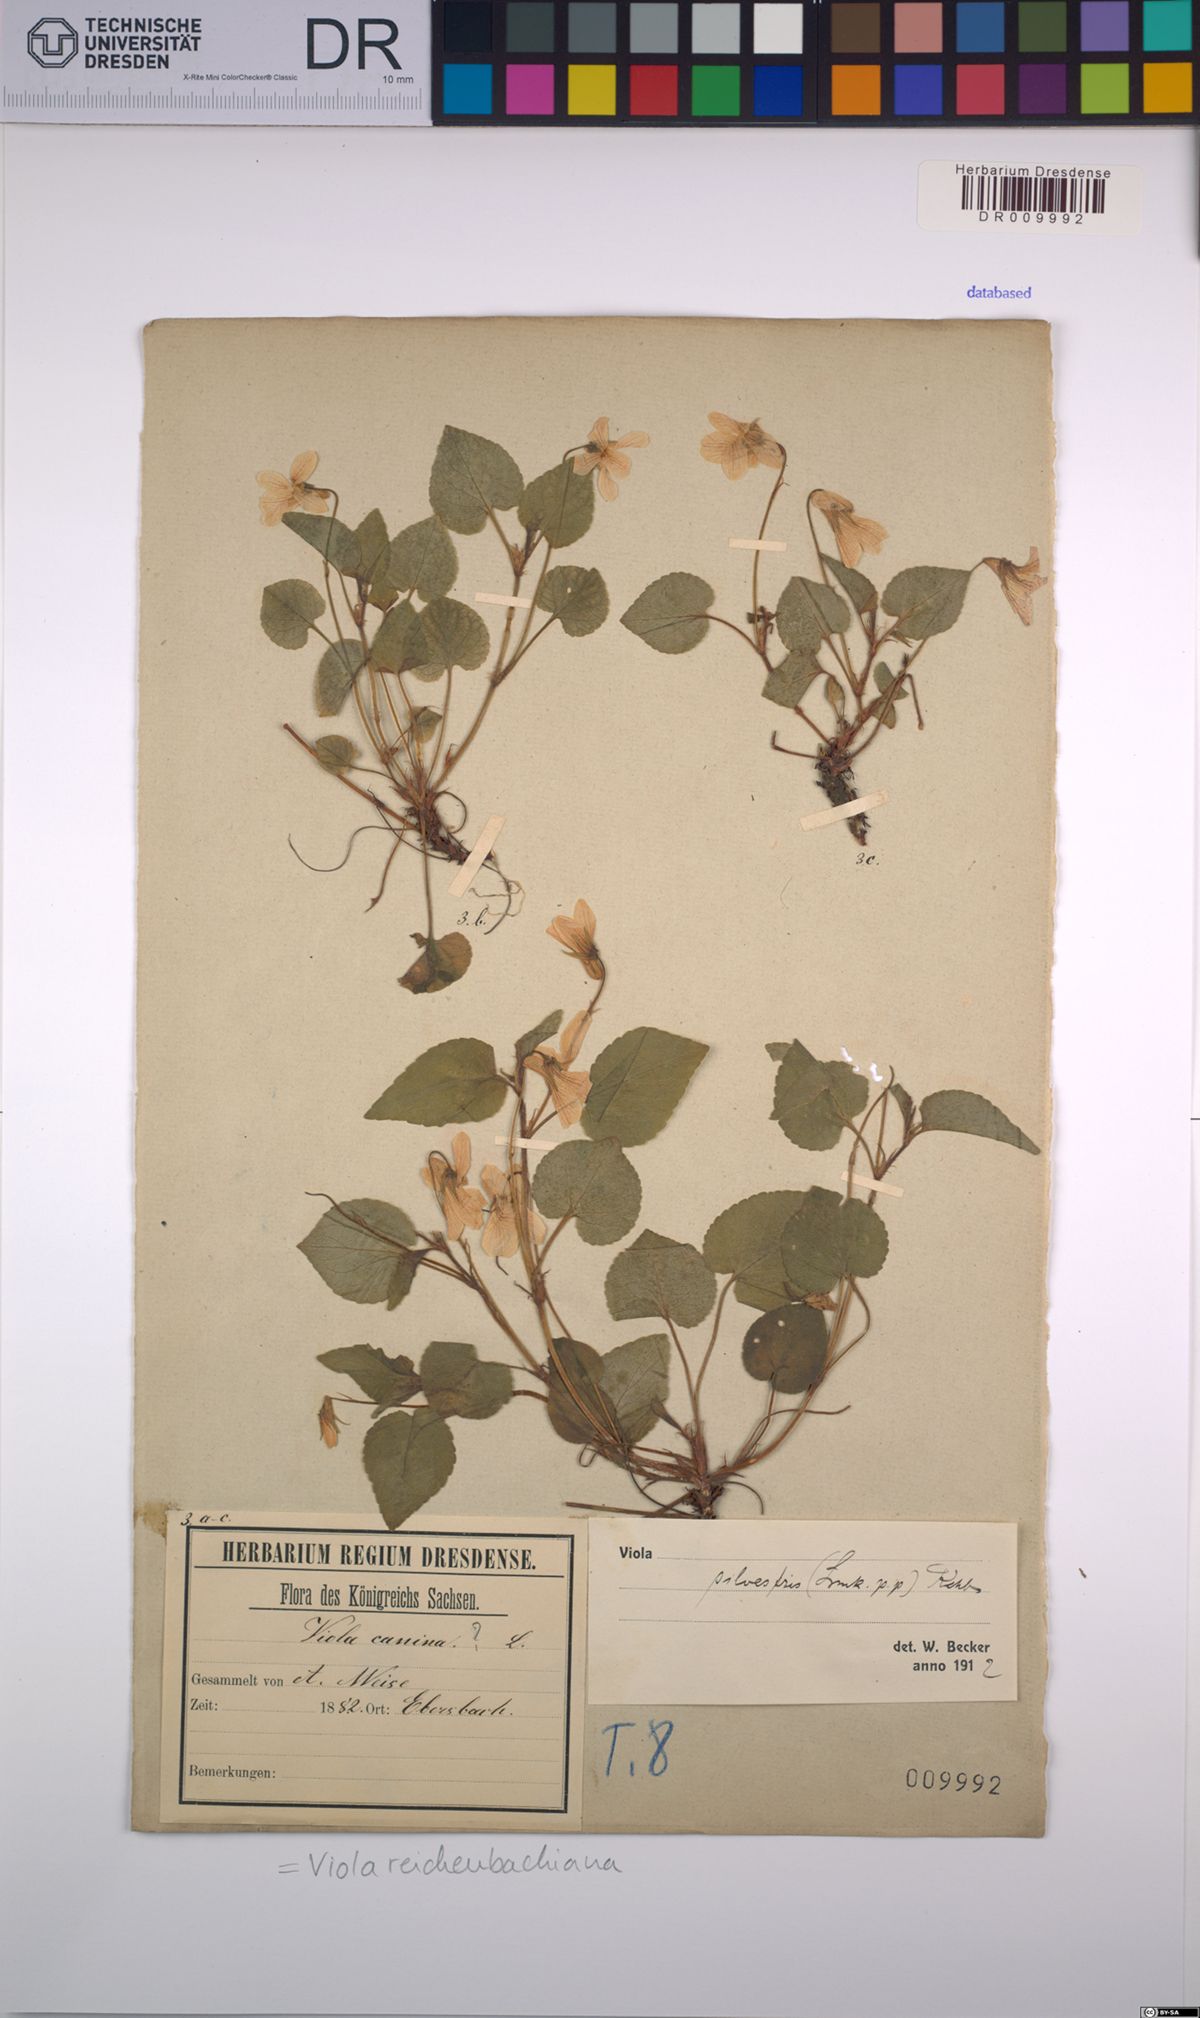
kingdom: Plantae
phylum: Tracheophyta
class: Magnoliopsida
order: Malpighiales
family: Violaceae
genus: Viola
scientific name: Viola reichenbachiana
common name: Early dog-violet
